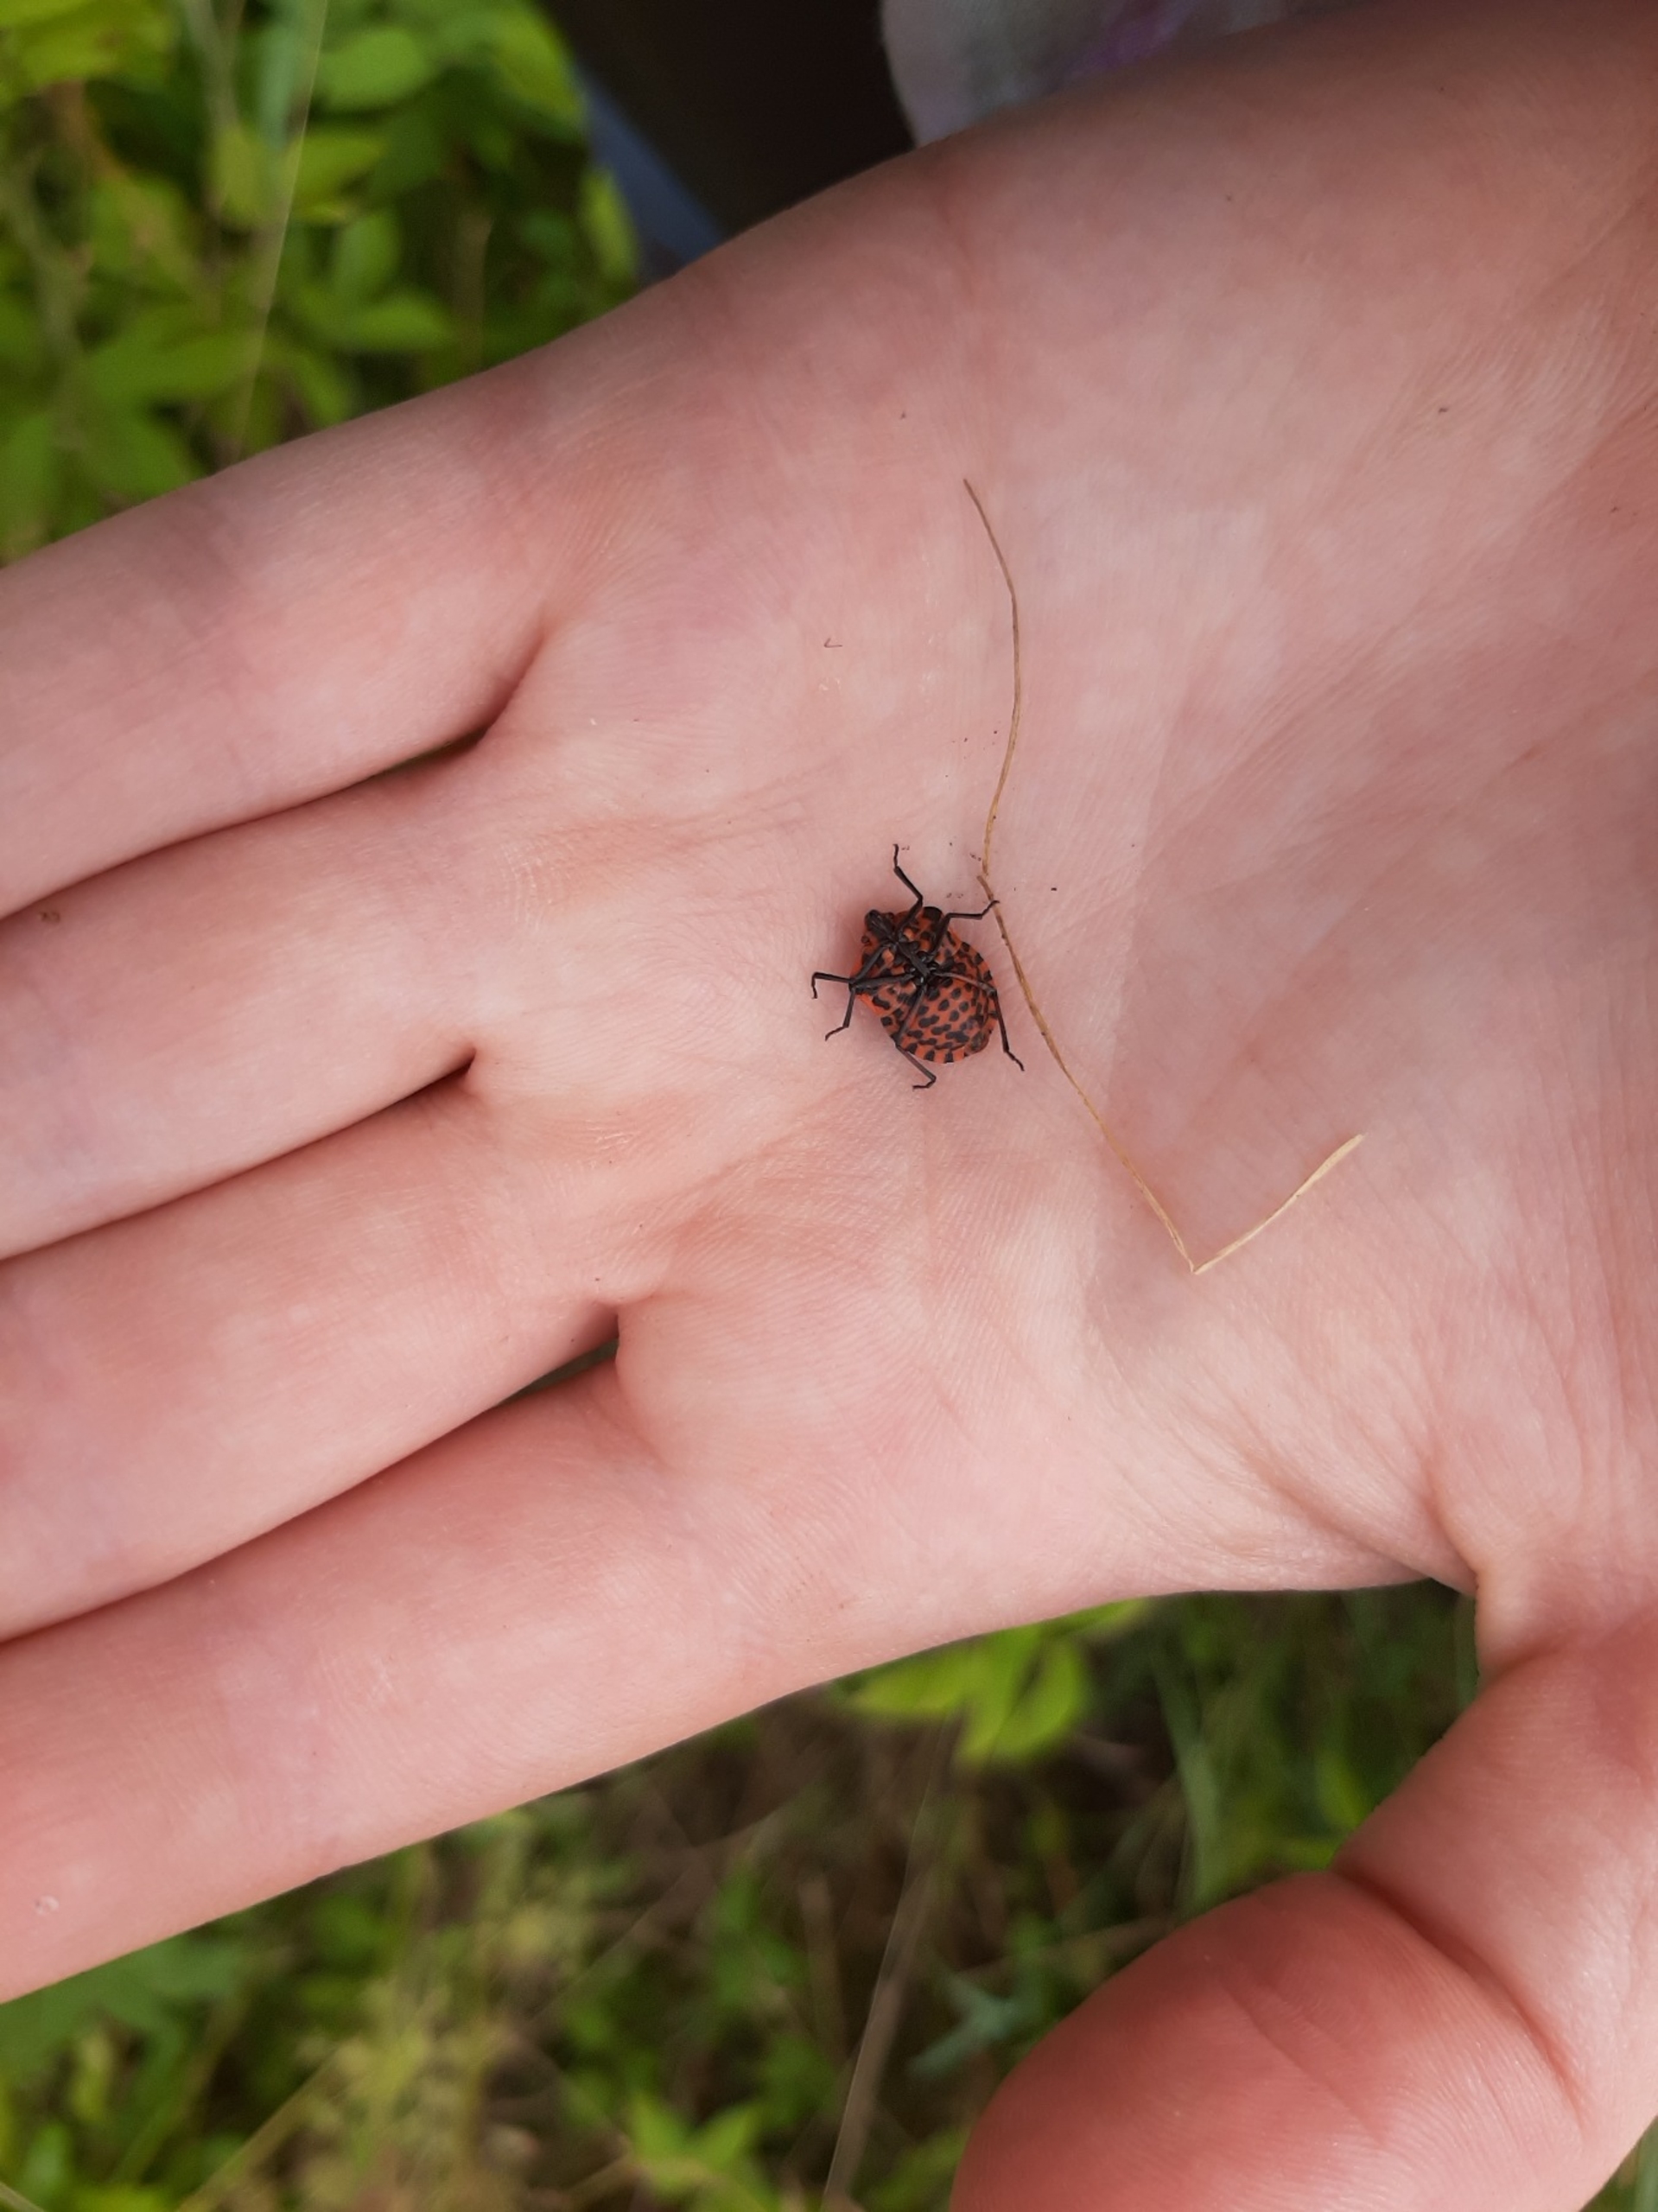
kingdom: Animalia
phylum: Arthropoda
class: Insecta
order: Hemiptera
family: Pentatomidae
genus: Graphosoma
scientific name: Graphosoma italicum
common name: Stribetæge
